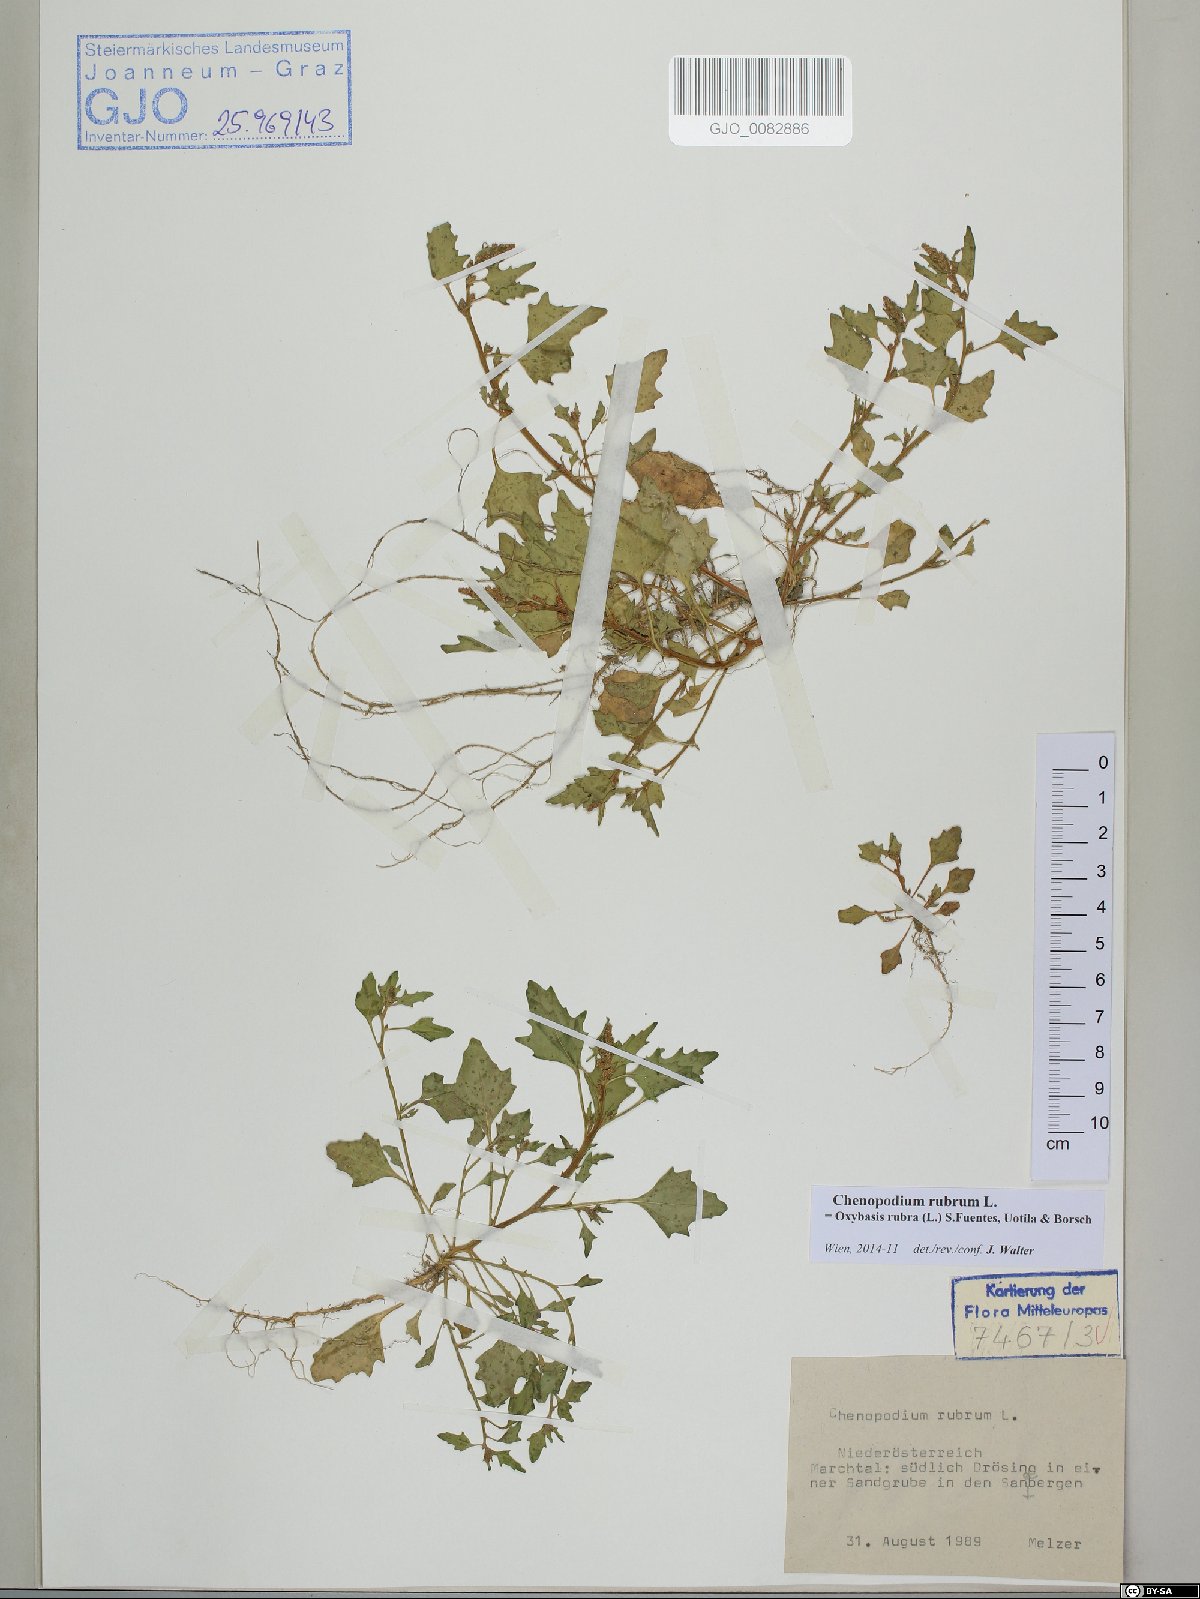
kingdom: Plantae
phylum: Tracheophyta
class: Magnoliopsida
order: Caryophyllales
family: Amaranthaceae
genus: Oxybasis
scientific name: Oxybasis rubra
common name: Red goosefoot
